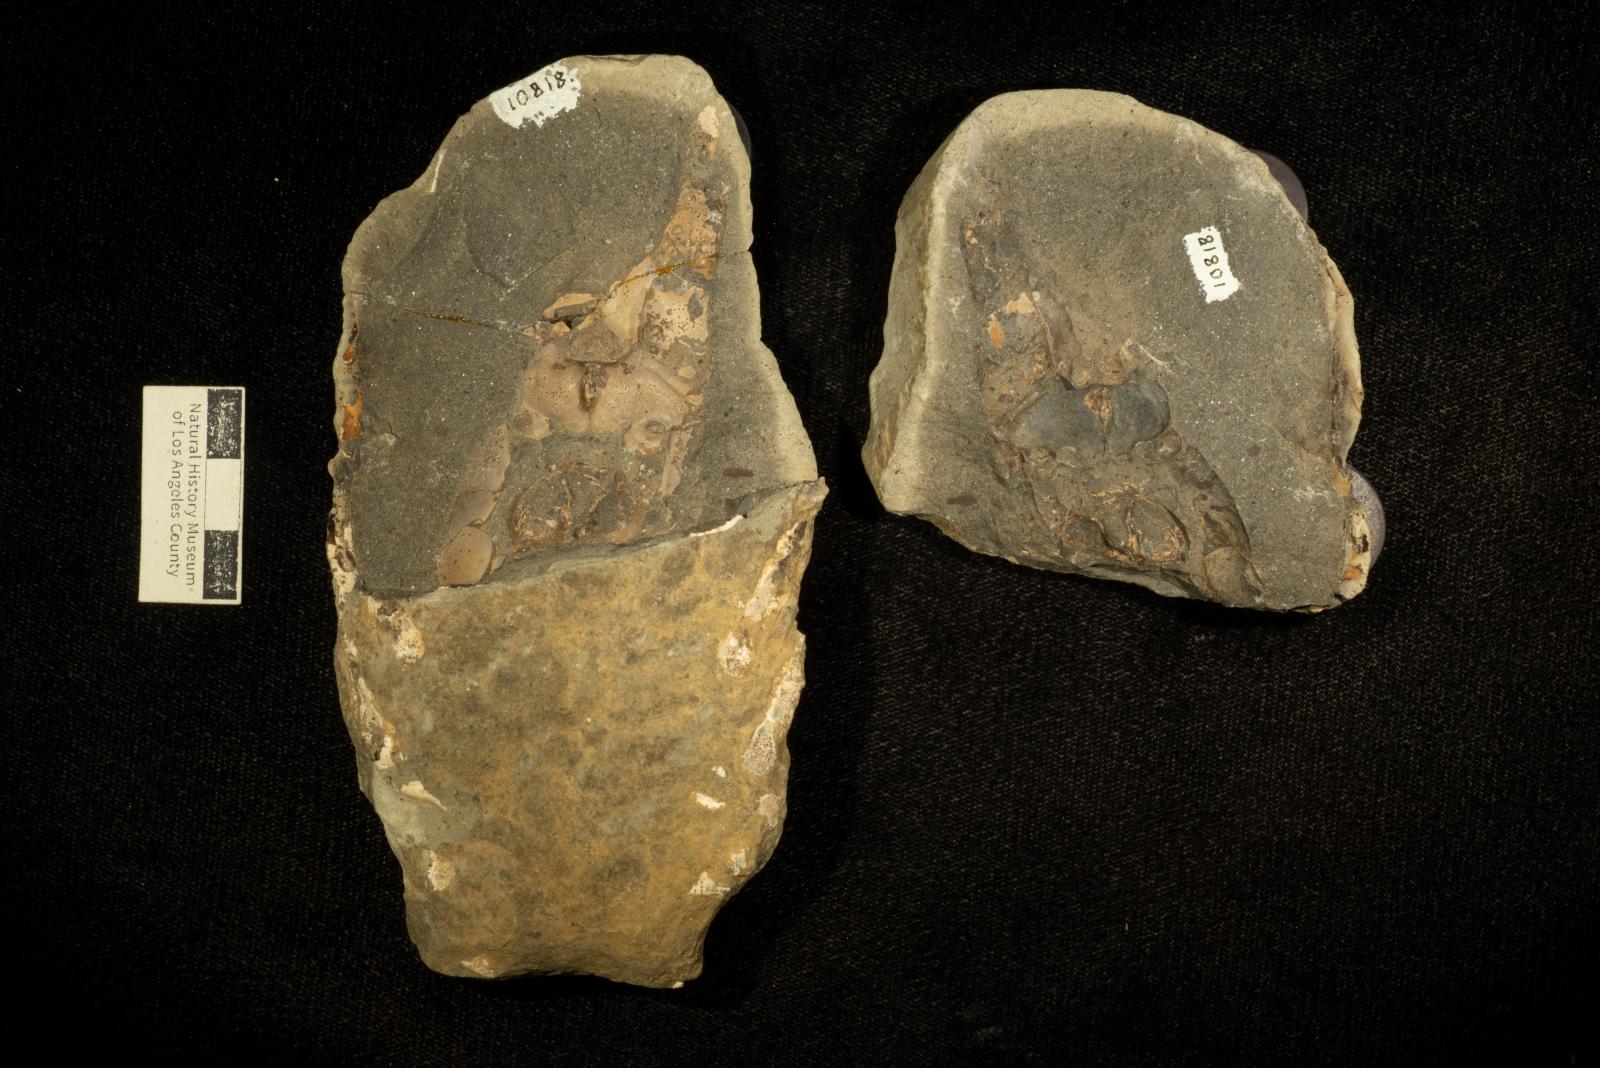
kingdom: Animalia
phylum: Arthropoda
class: Malacostraca
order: Decapoda
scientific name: Decapoda
